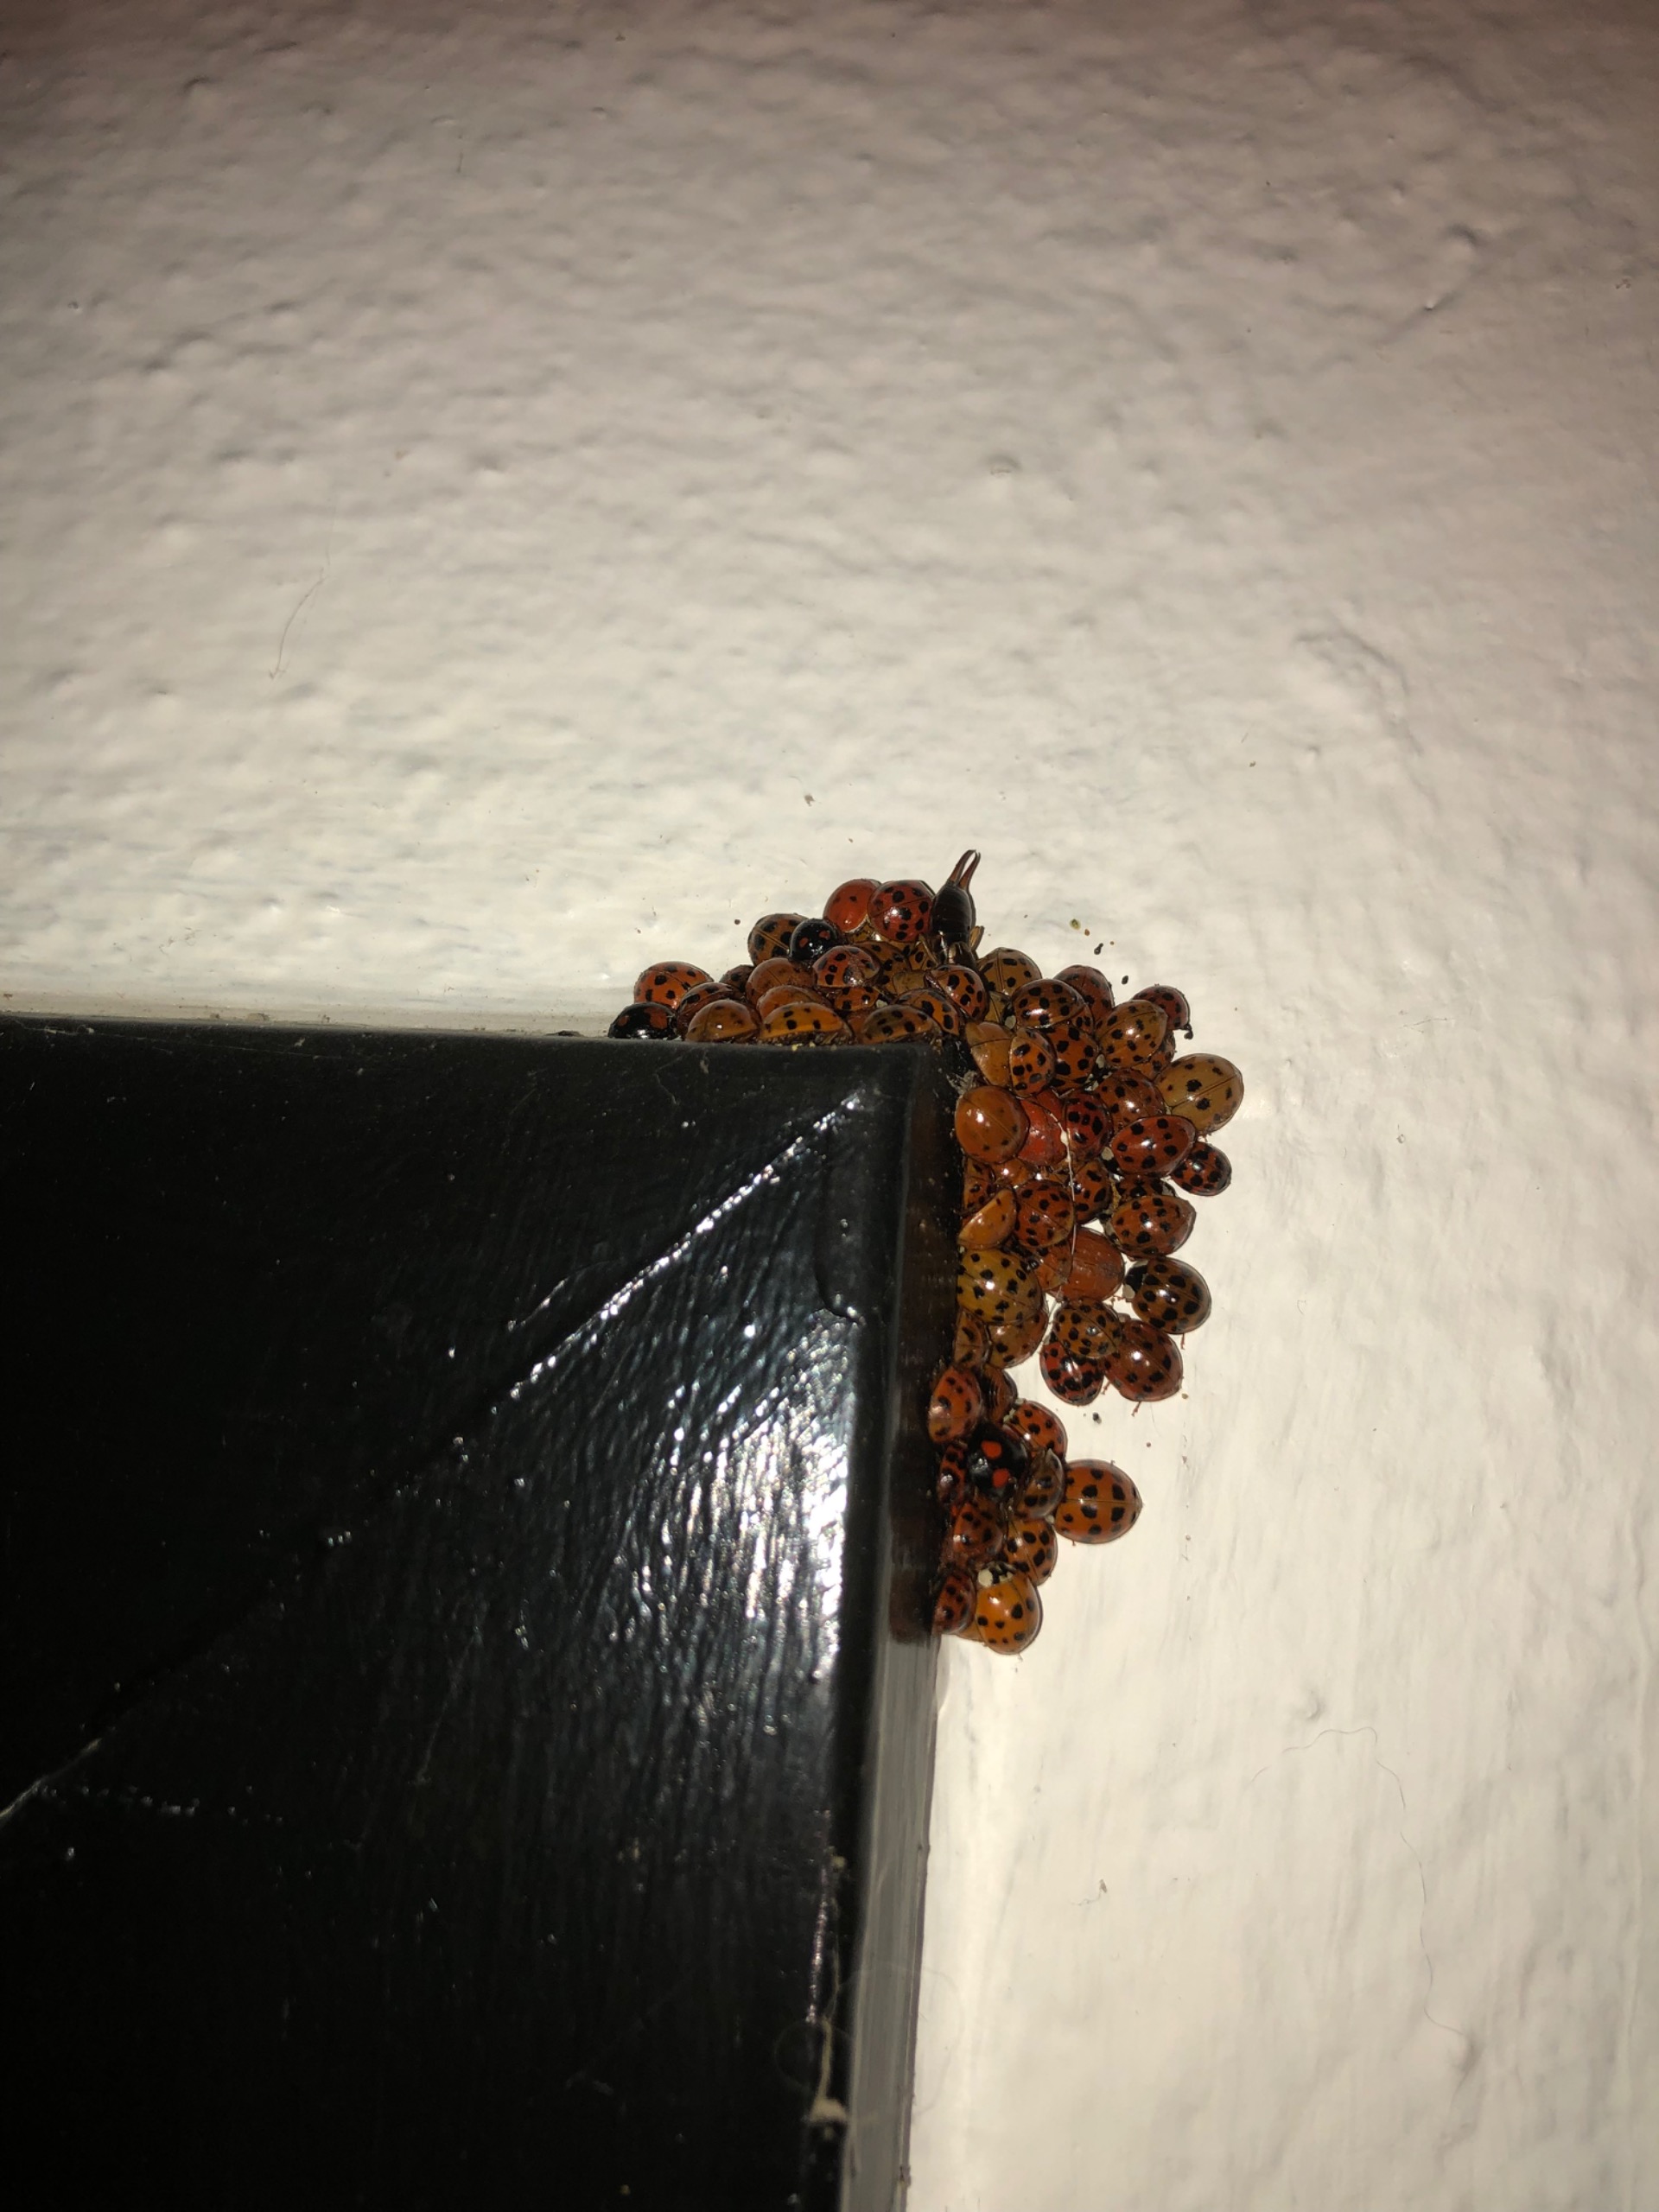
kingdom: Animalia
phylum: Arthropoda
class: Insecta
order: Coleoptera
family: Coccinellidae
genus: Harmonia
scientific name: Harmonia axyridis
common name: Harlekinmariehøne
